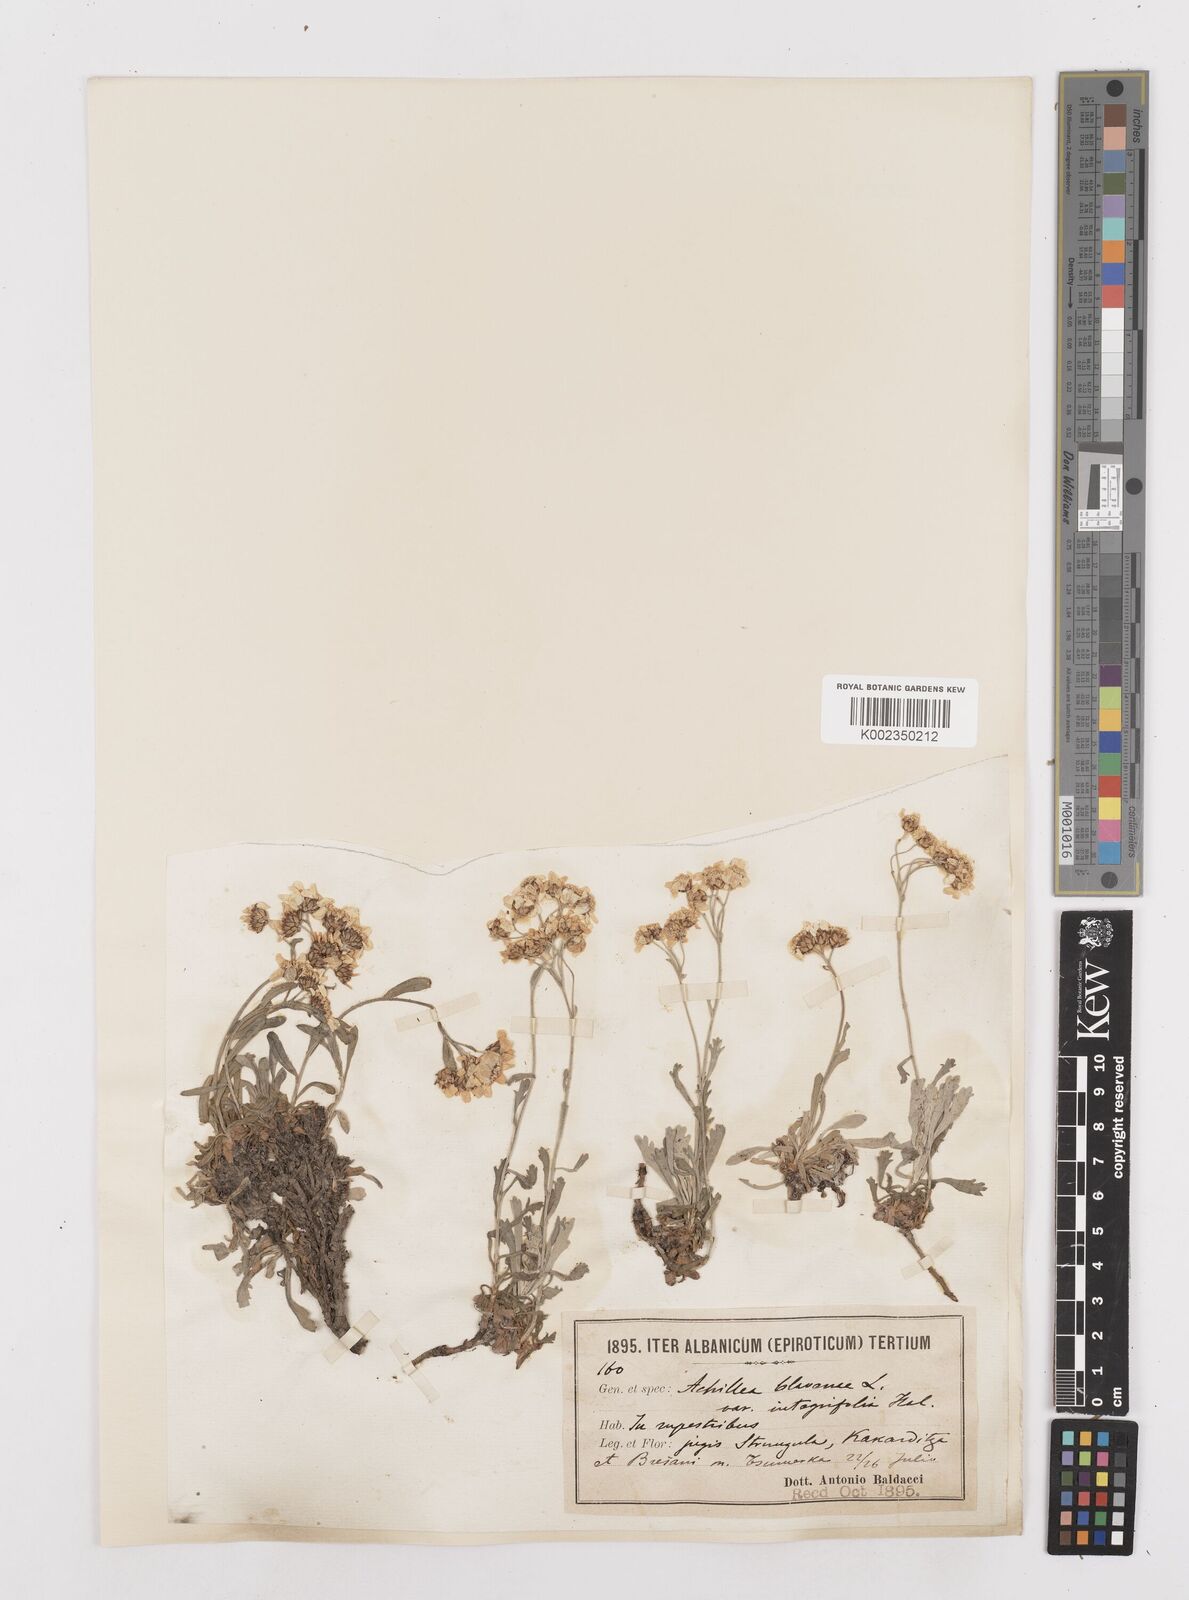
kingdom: Plantae
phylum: Tracheophyta
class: Magnoliopsida
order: Asterales
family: Asteraceae
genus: Achillea
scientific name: Achillea clavennae
